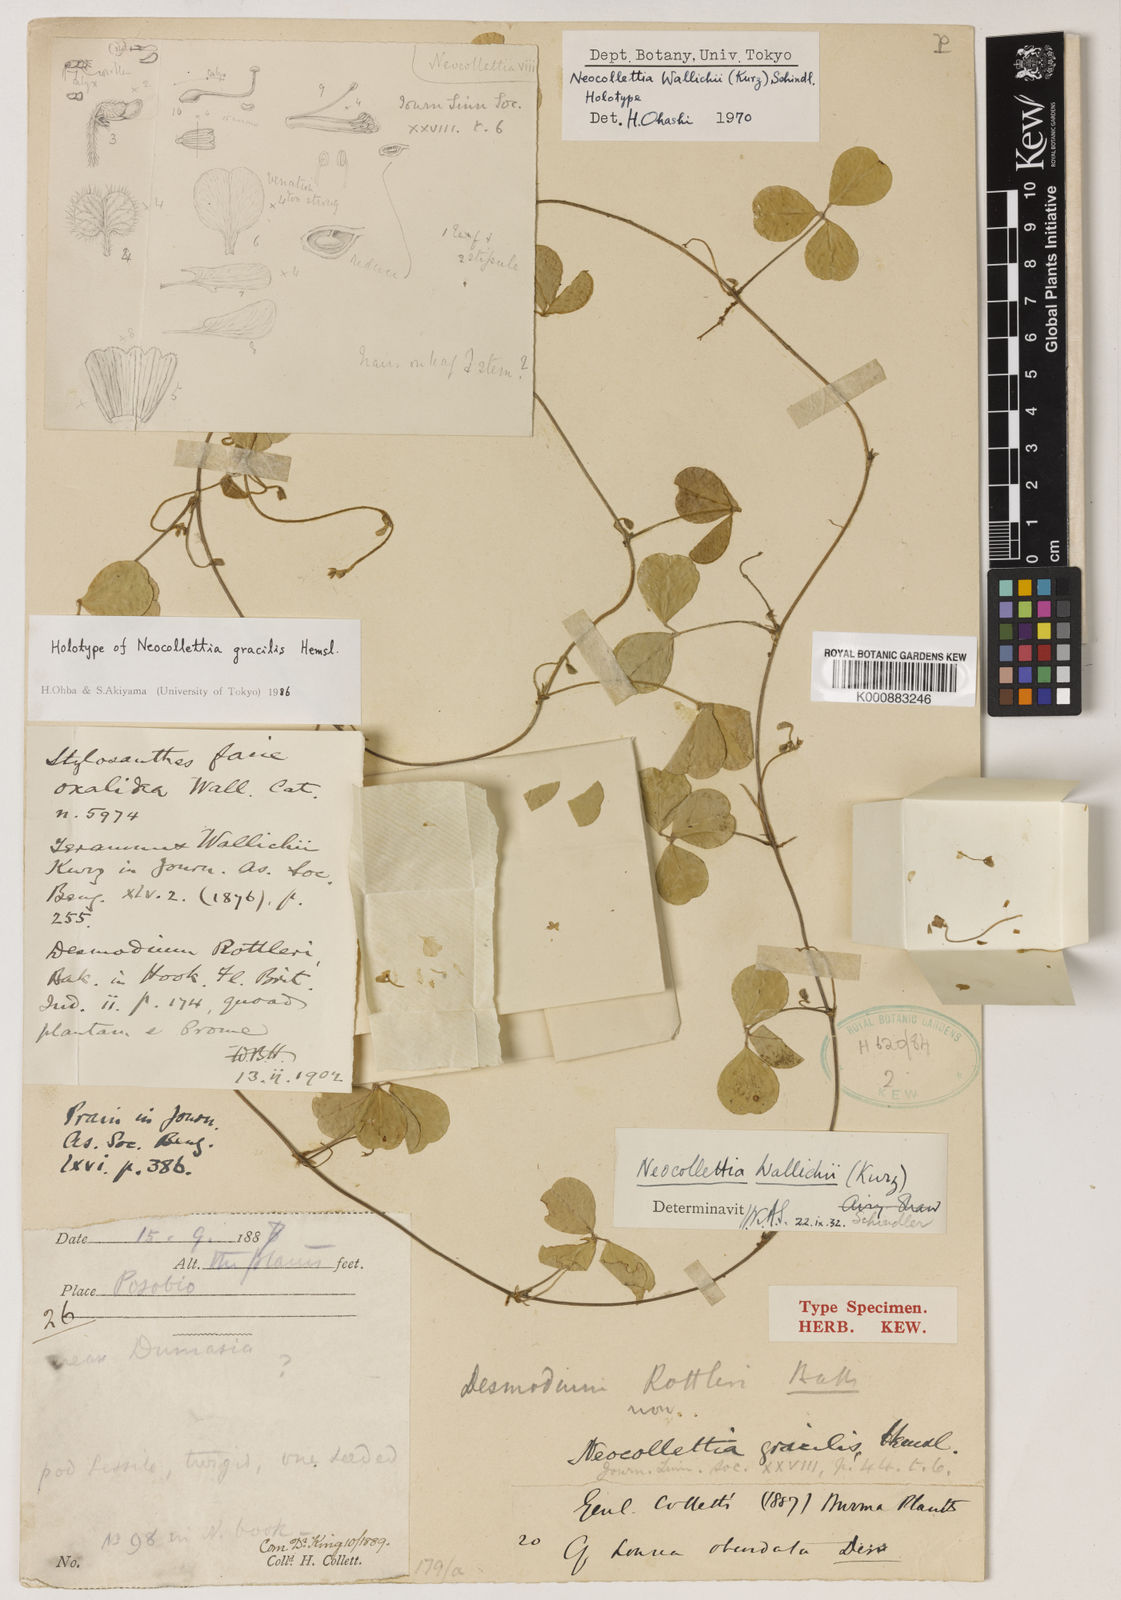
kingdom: Plantae
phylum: Tracheophyta
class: Magnoliopsida
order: Fabales
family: Fabaceae
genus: Neocollettia
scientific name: Neocollettia wallichii
